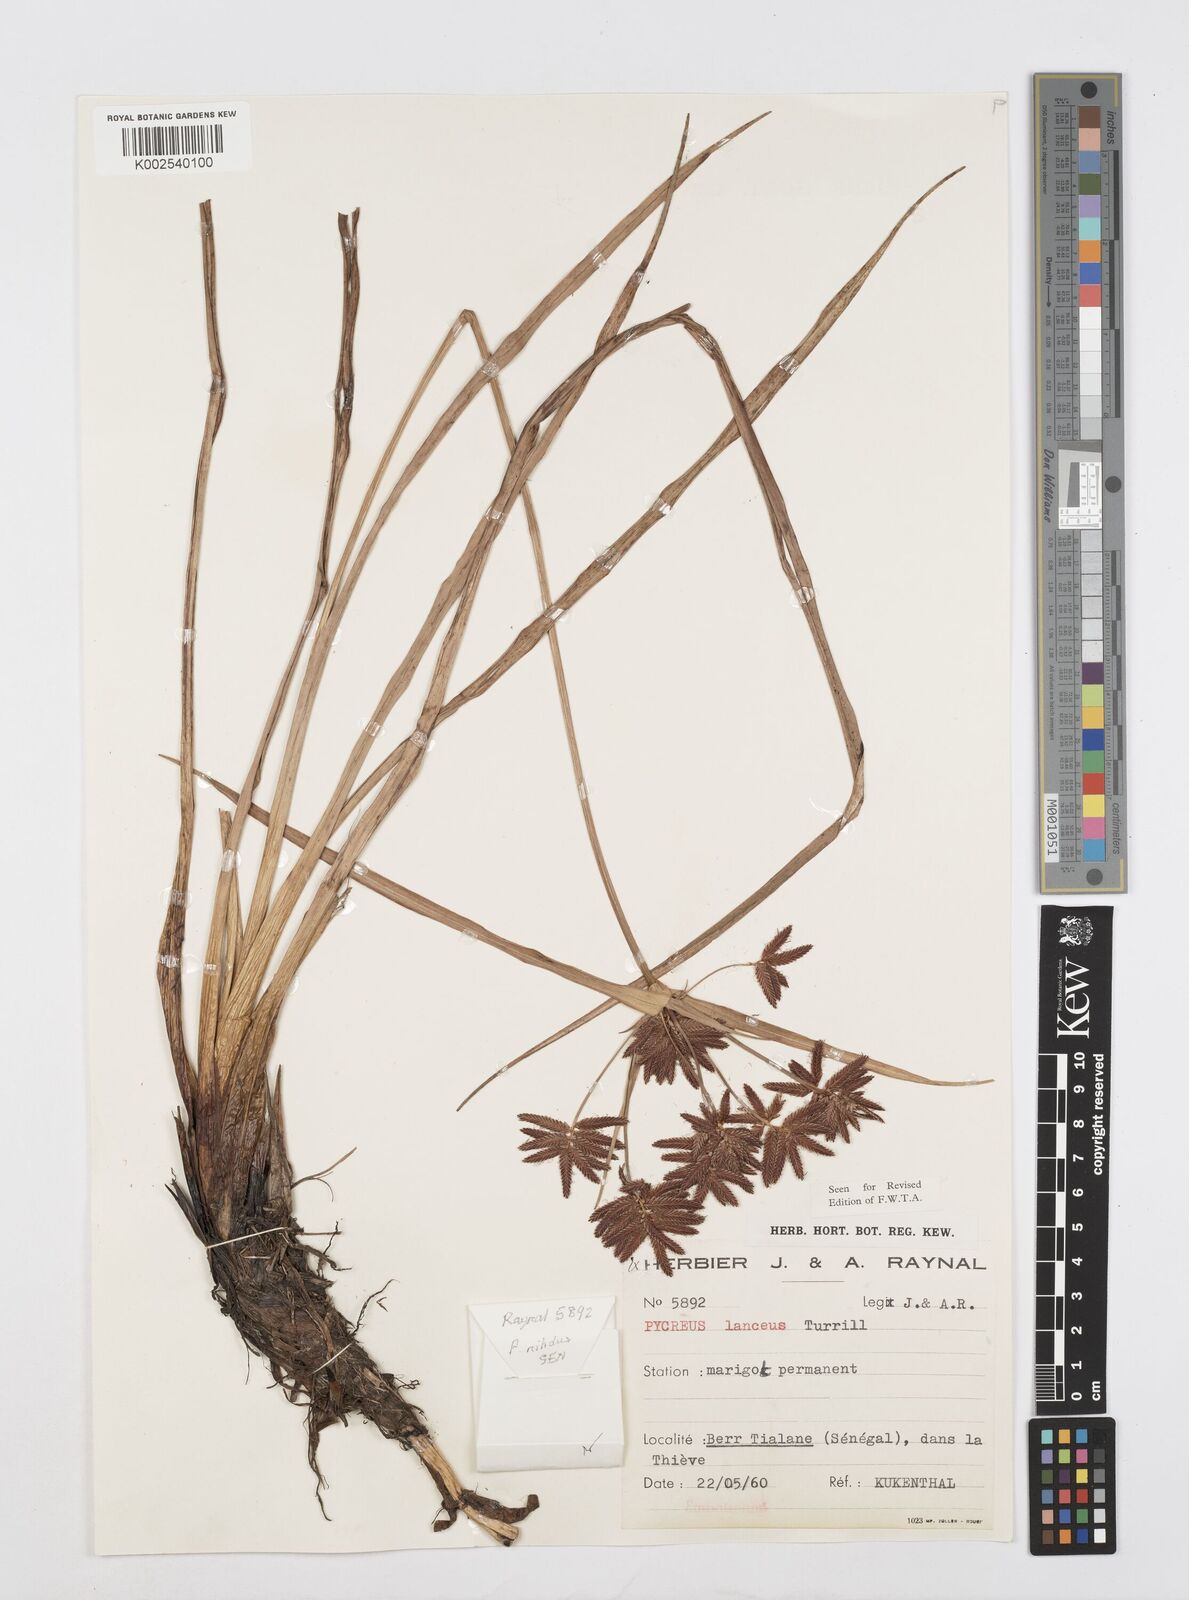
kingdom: Plantae
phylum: Tracheophyta
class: Liliopsida
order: Poales
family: Cyperaceae
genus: Cyperus
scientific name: Cyperus nitidus
